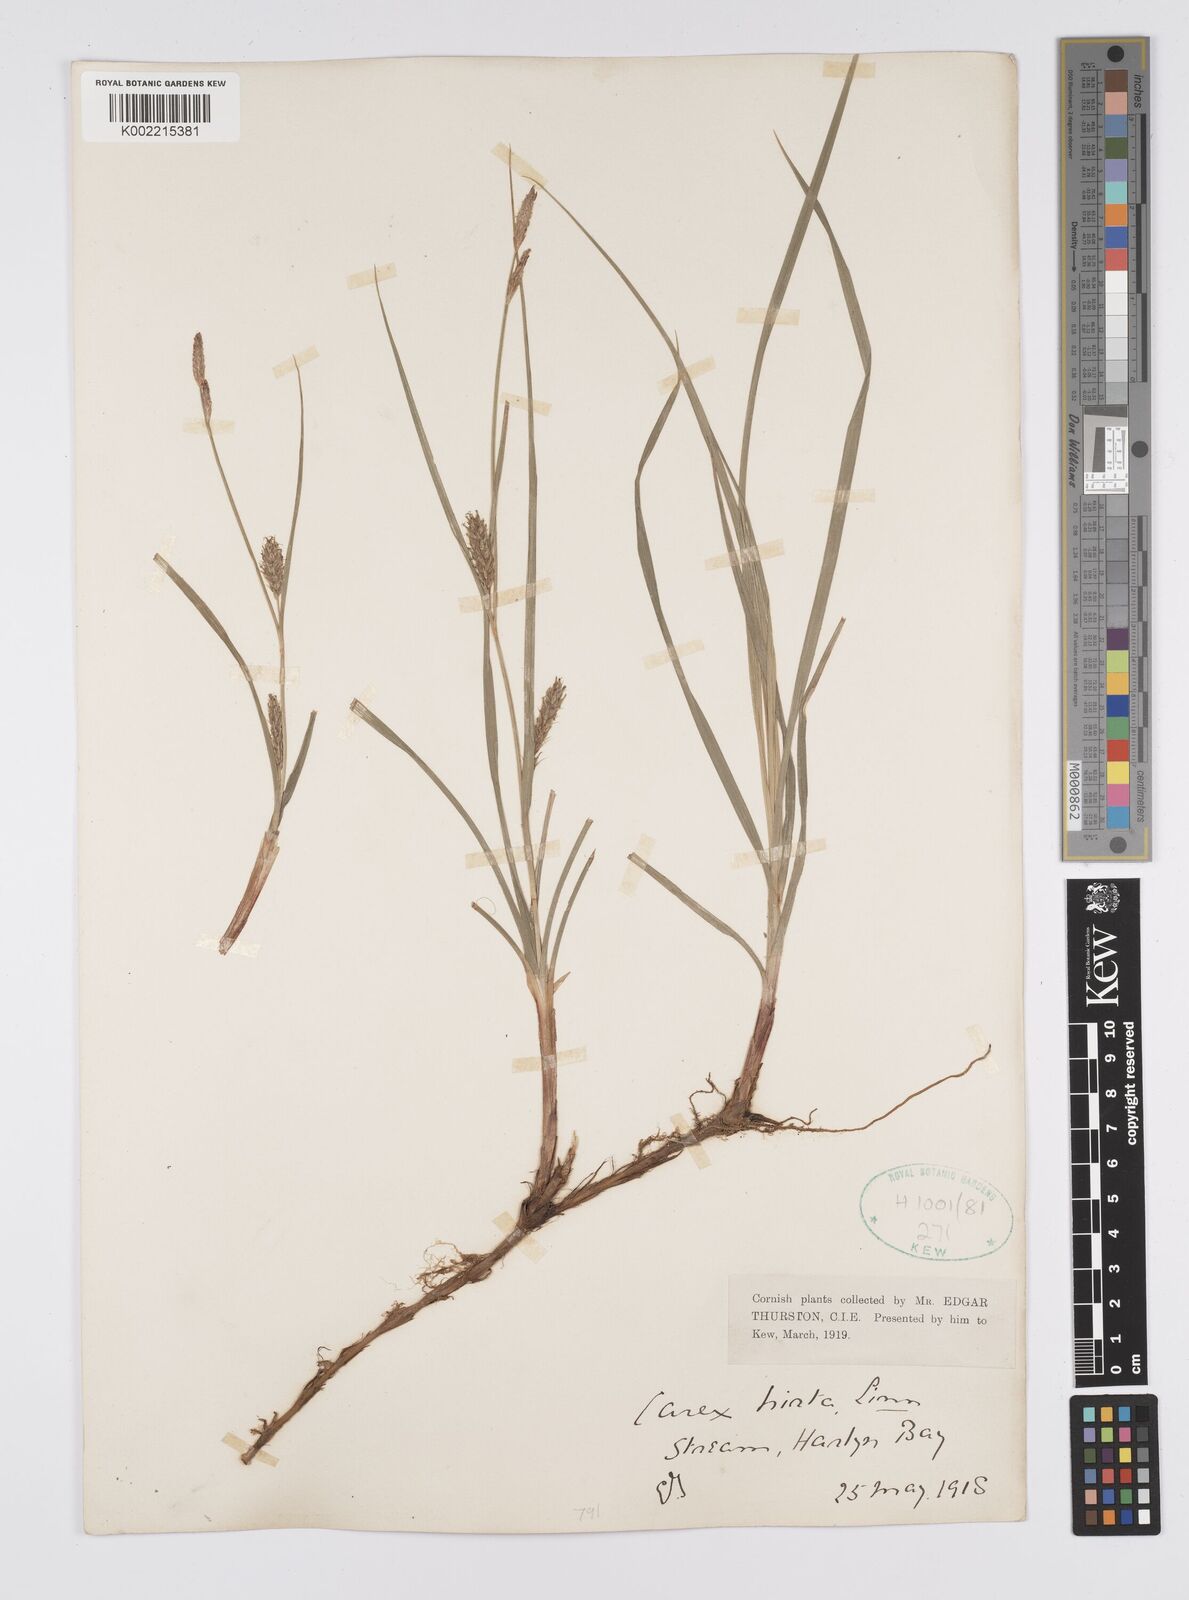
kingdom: Plantae
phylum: Tracheophyta
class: Liliopsida
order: Poales
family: Cyperaceae
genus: Carex
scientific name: Carex hirta
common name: Hairy sedge
